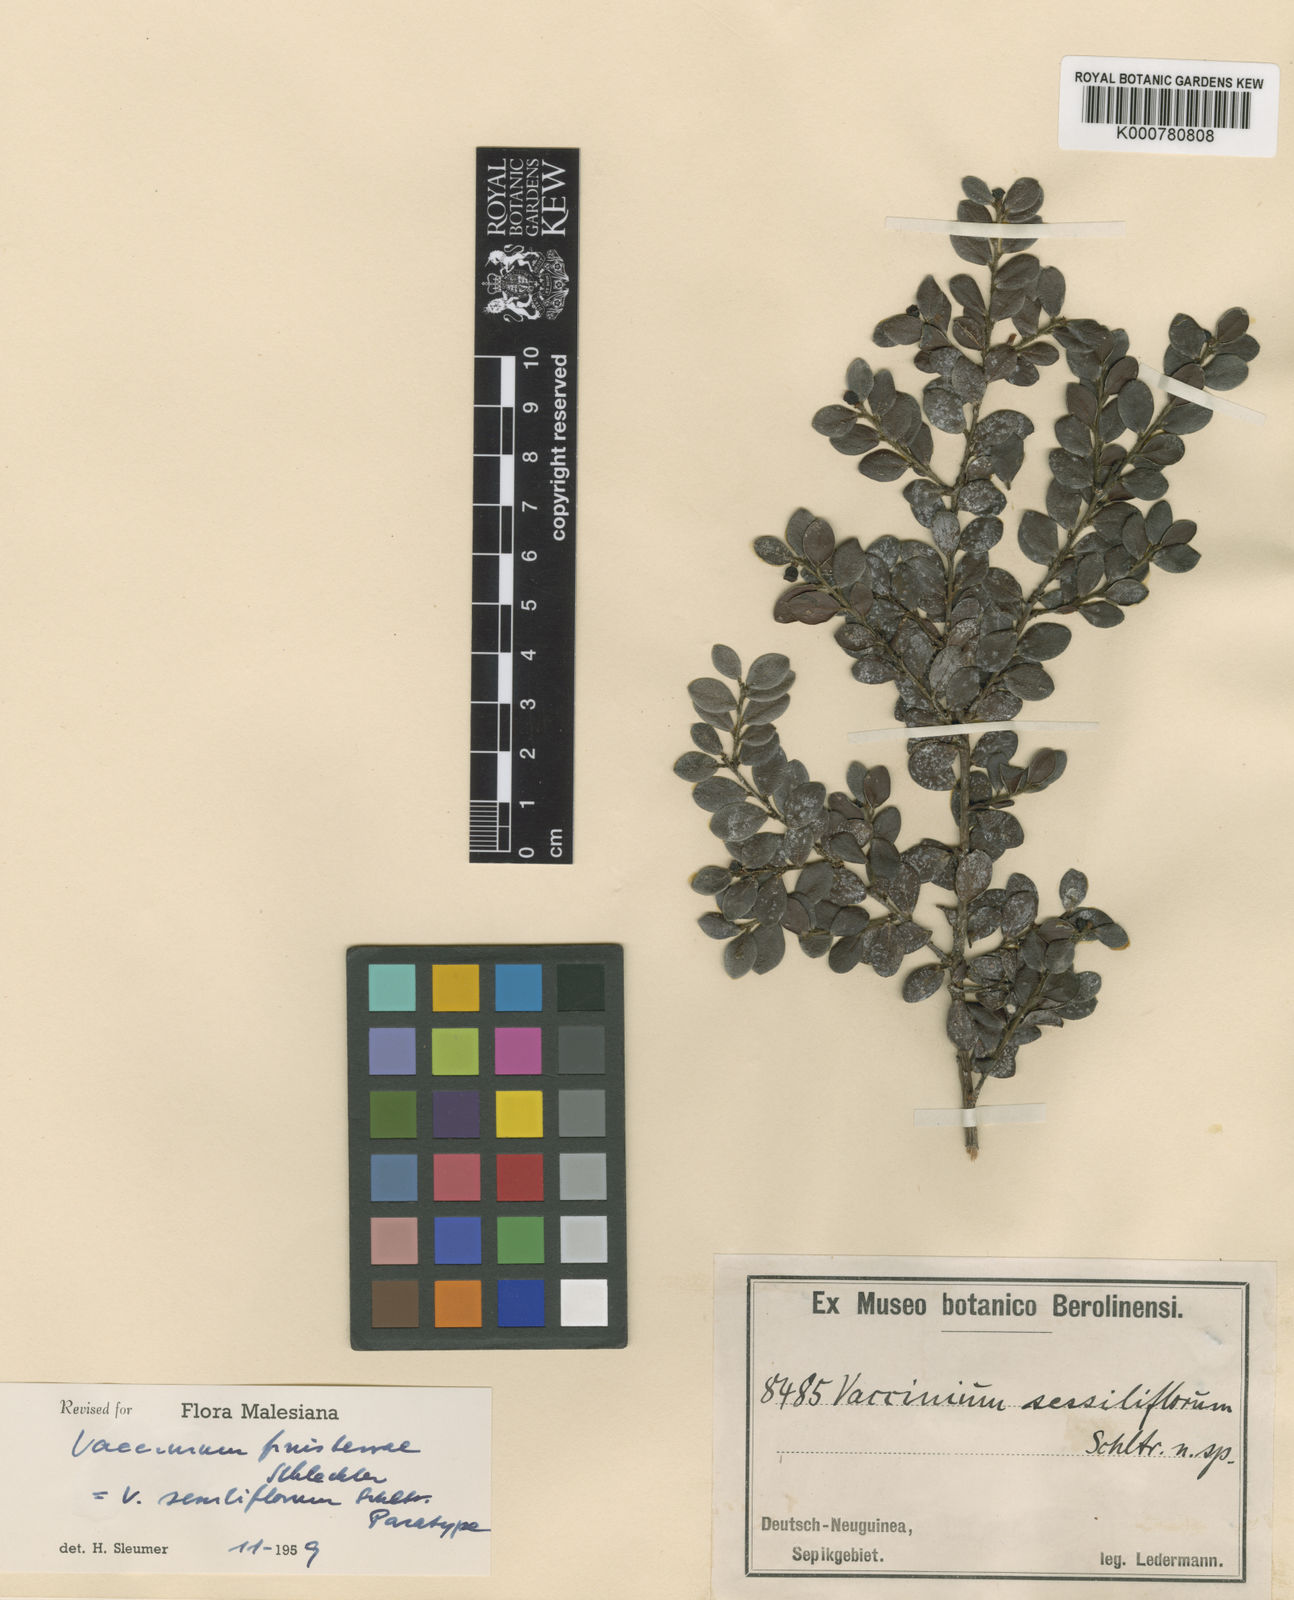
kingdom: Plantae
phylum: Tracheophyta
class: Magnoliopsida
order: Ericales
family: Ericaceae
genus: Vaccinium
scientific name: Vaccinium finisterrae
